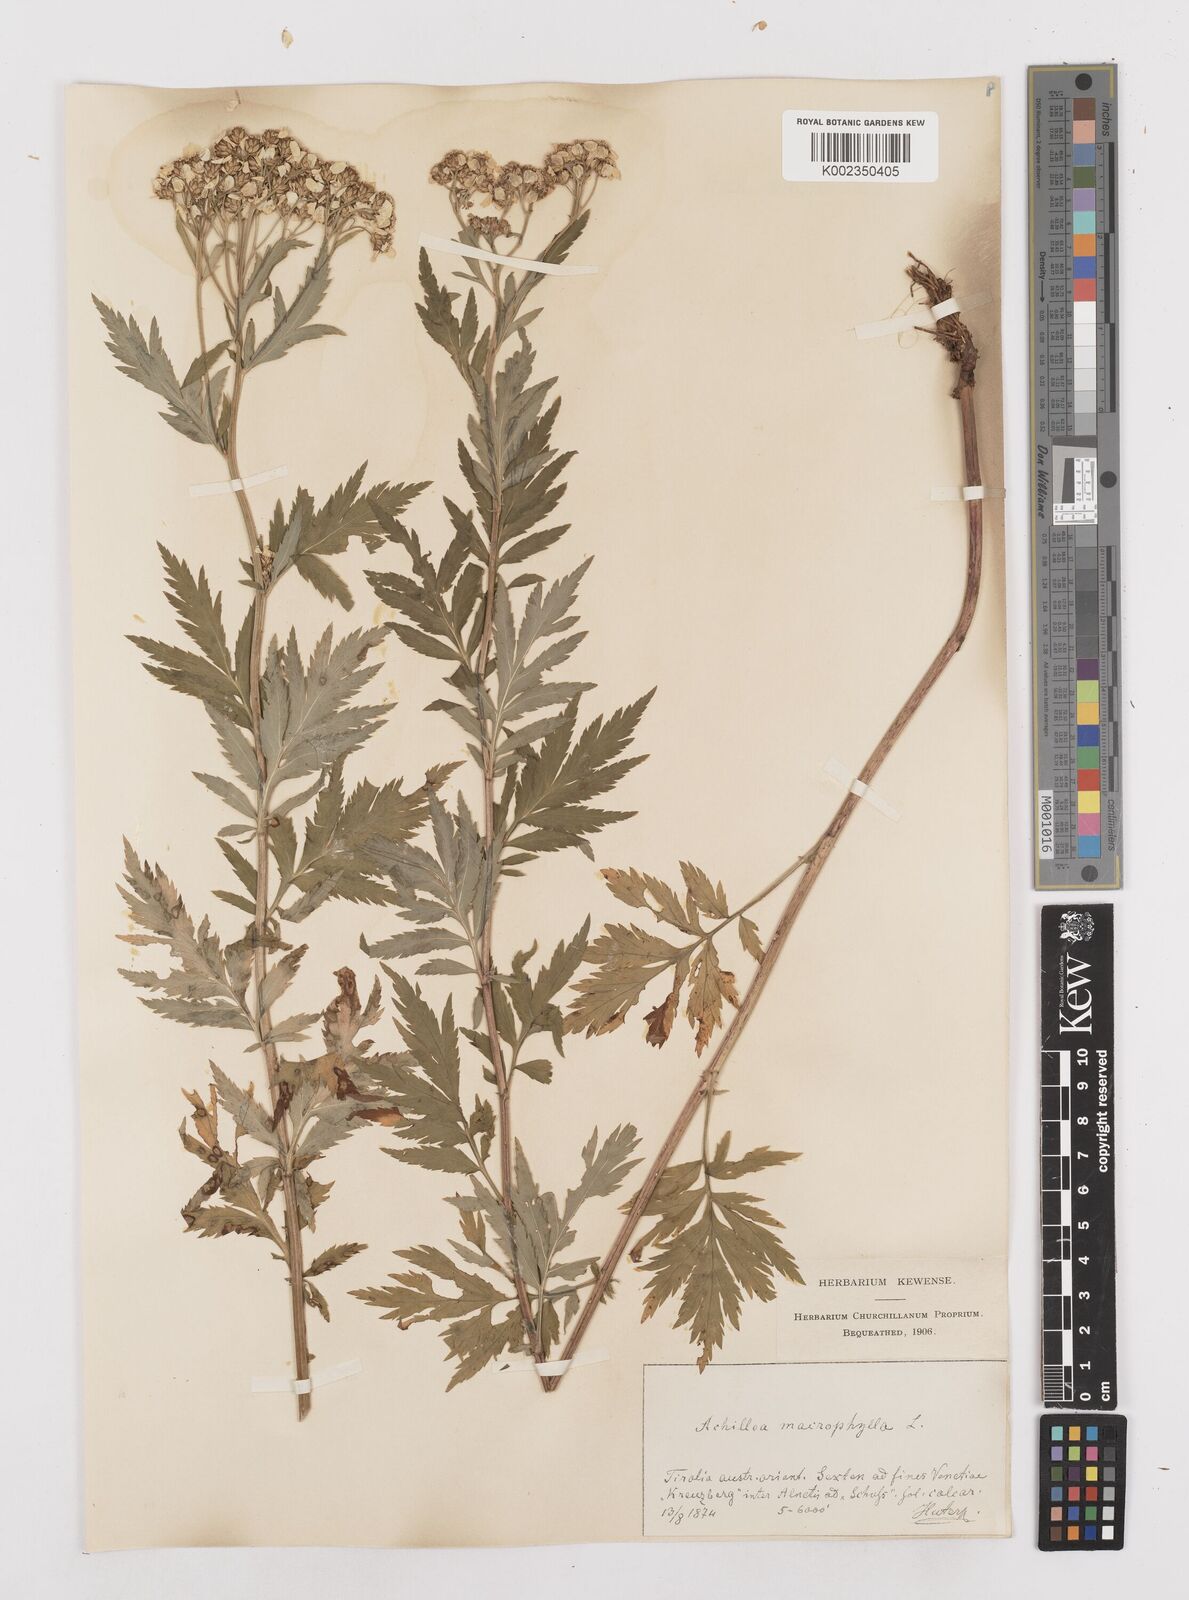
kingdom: Plantae
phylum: Tracheophyta
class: Magnoliopsida
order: Asterales
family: Asteraceae
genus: Achillea
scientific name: Achillea macrophylla
